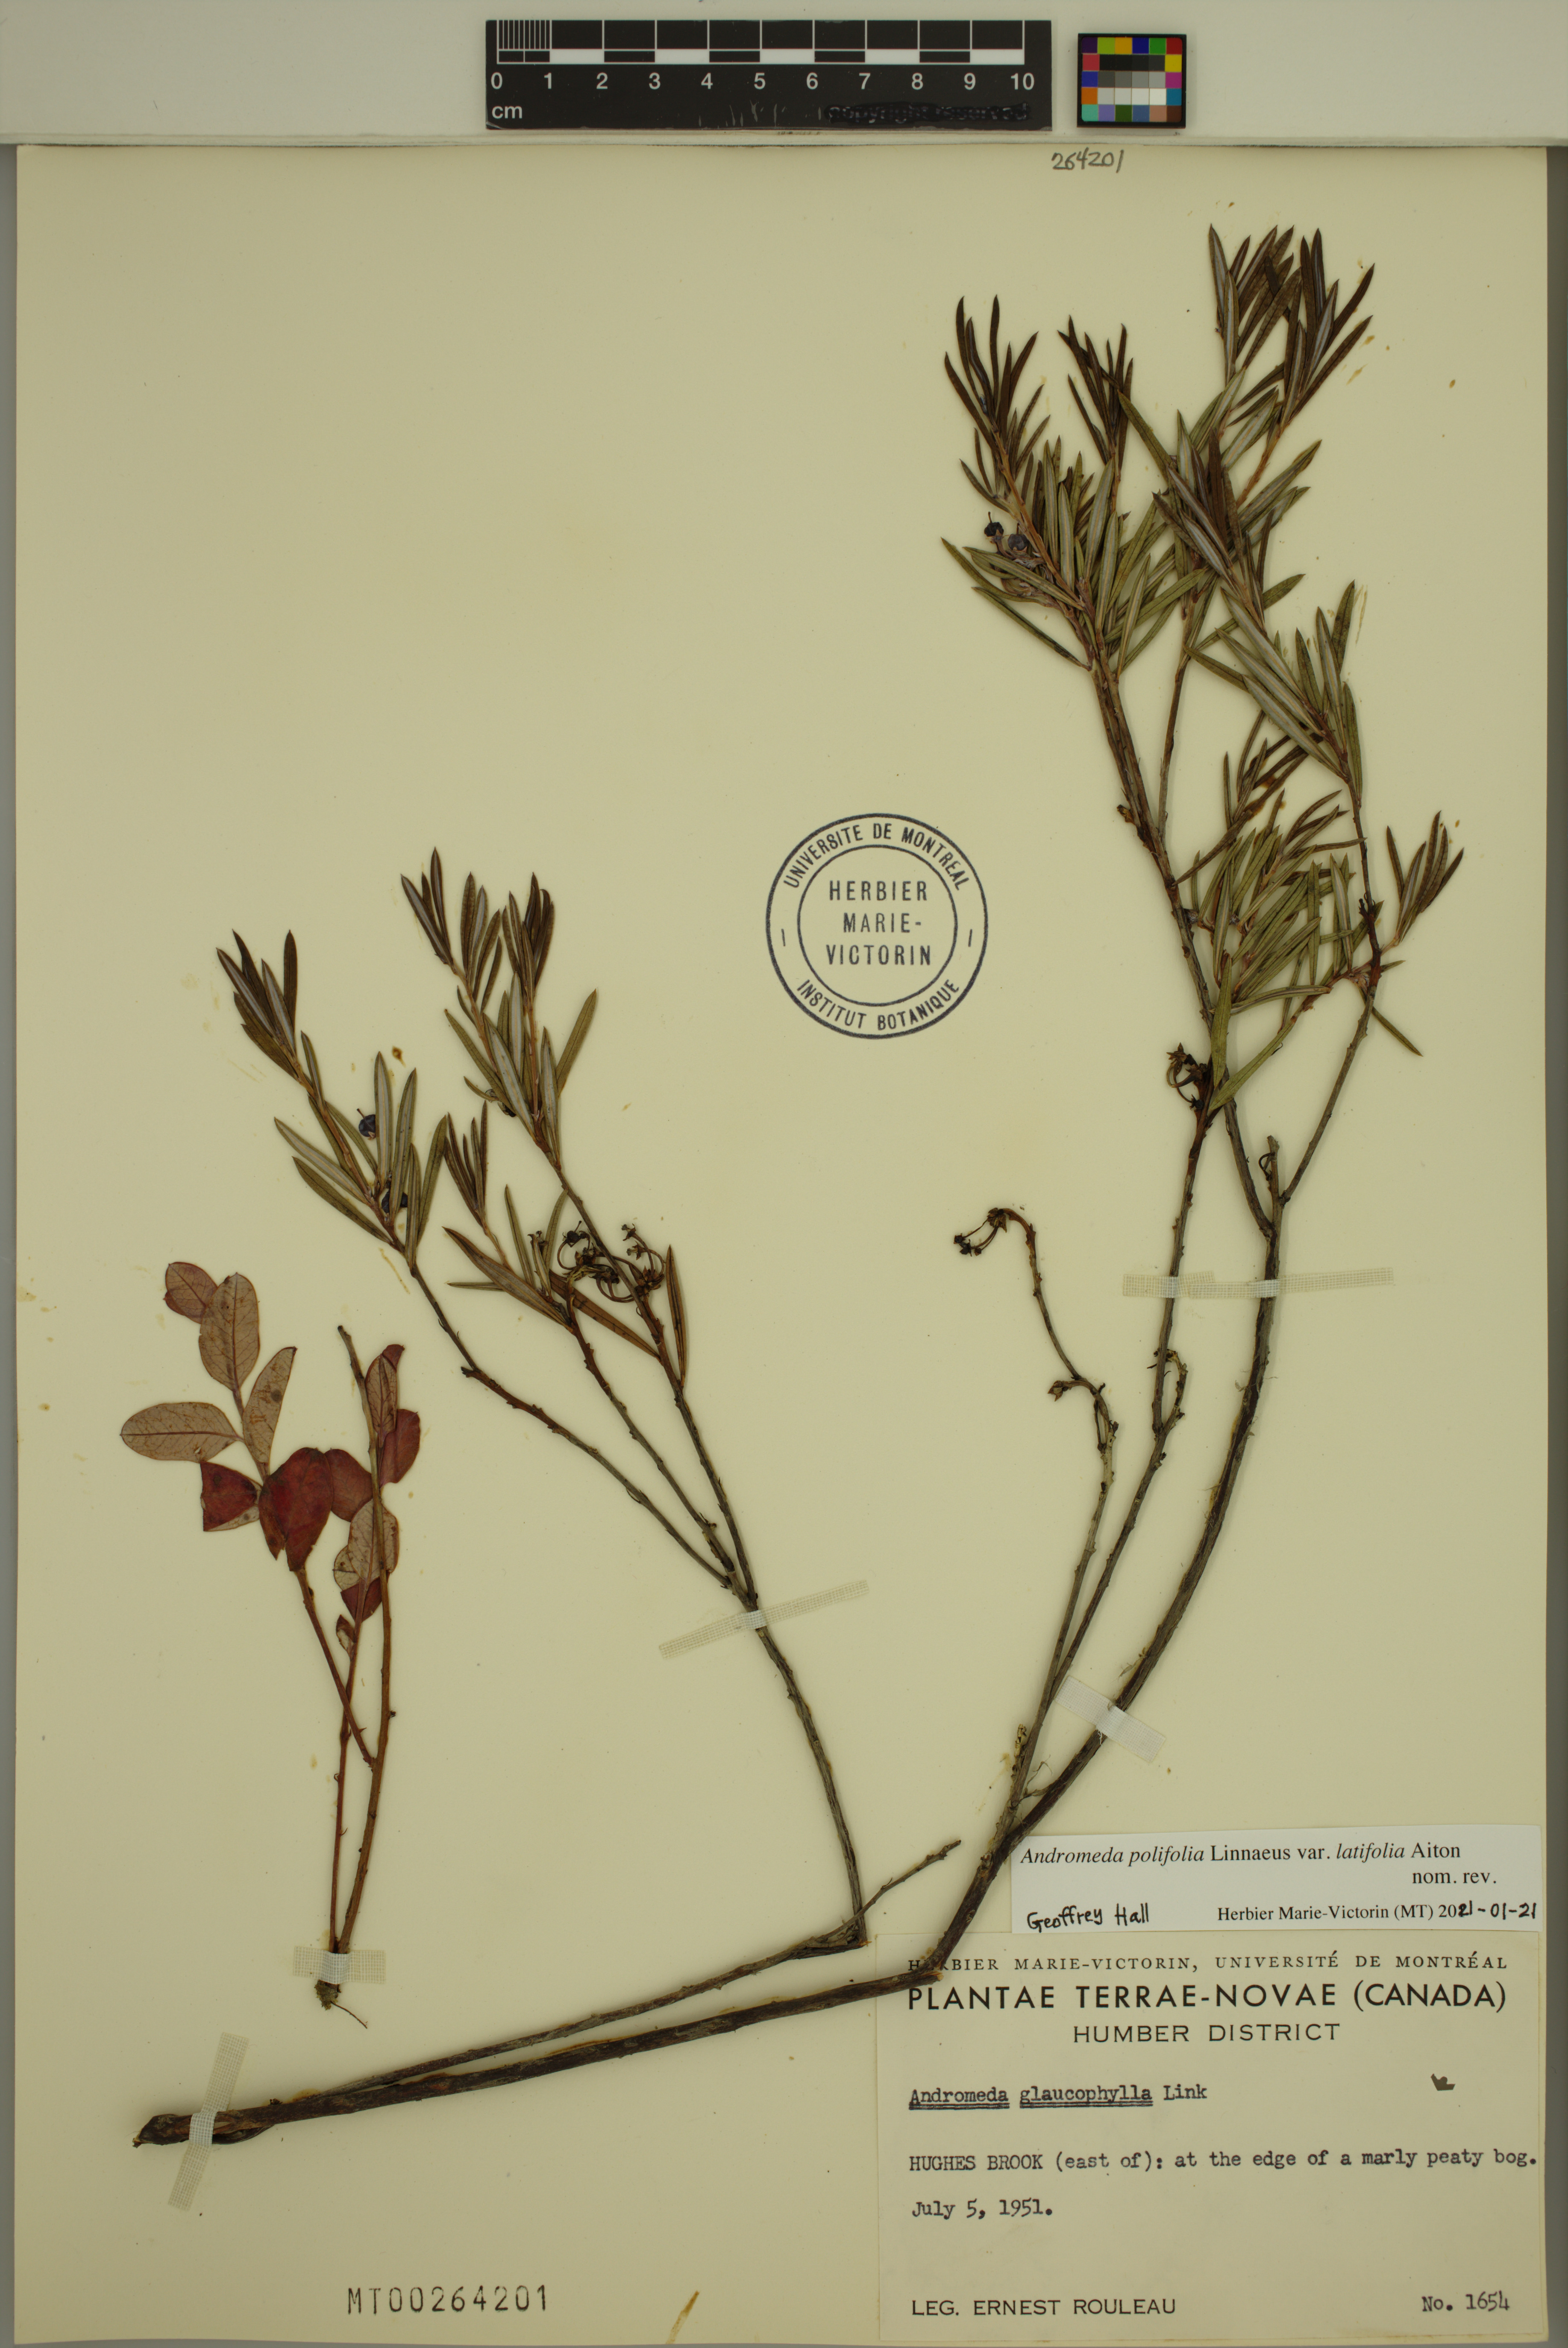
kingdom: Plantae
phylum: Tracheophyta
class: Magnoliopsida
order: Ericales
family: Ericaceae
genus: Andromeda
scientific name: Andromeda polifolia
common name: Bog-rosemary
